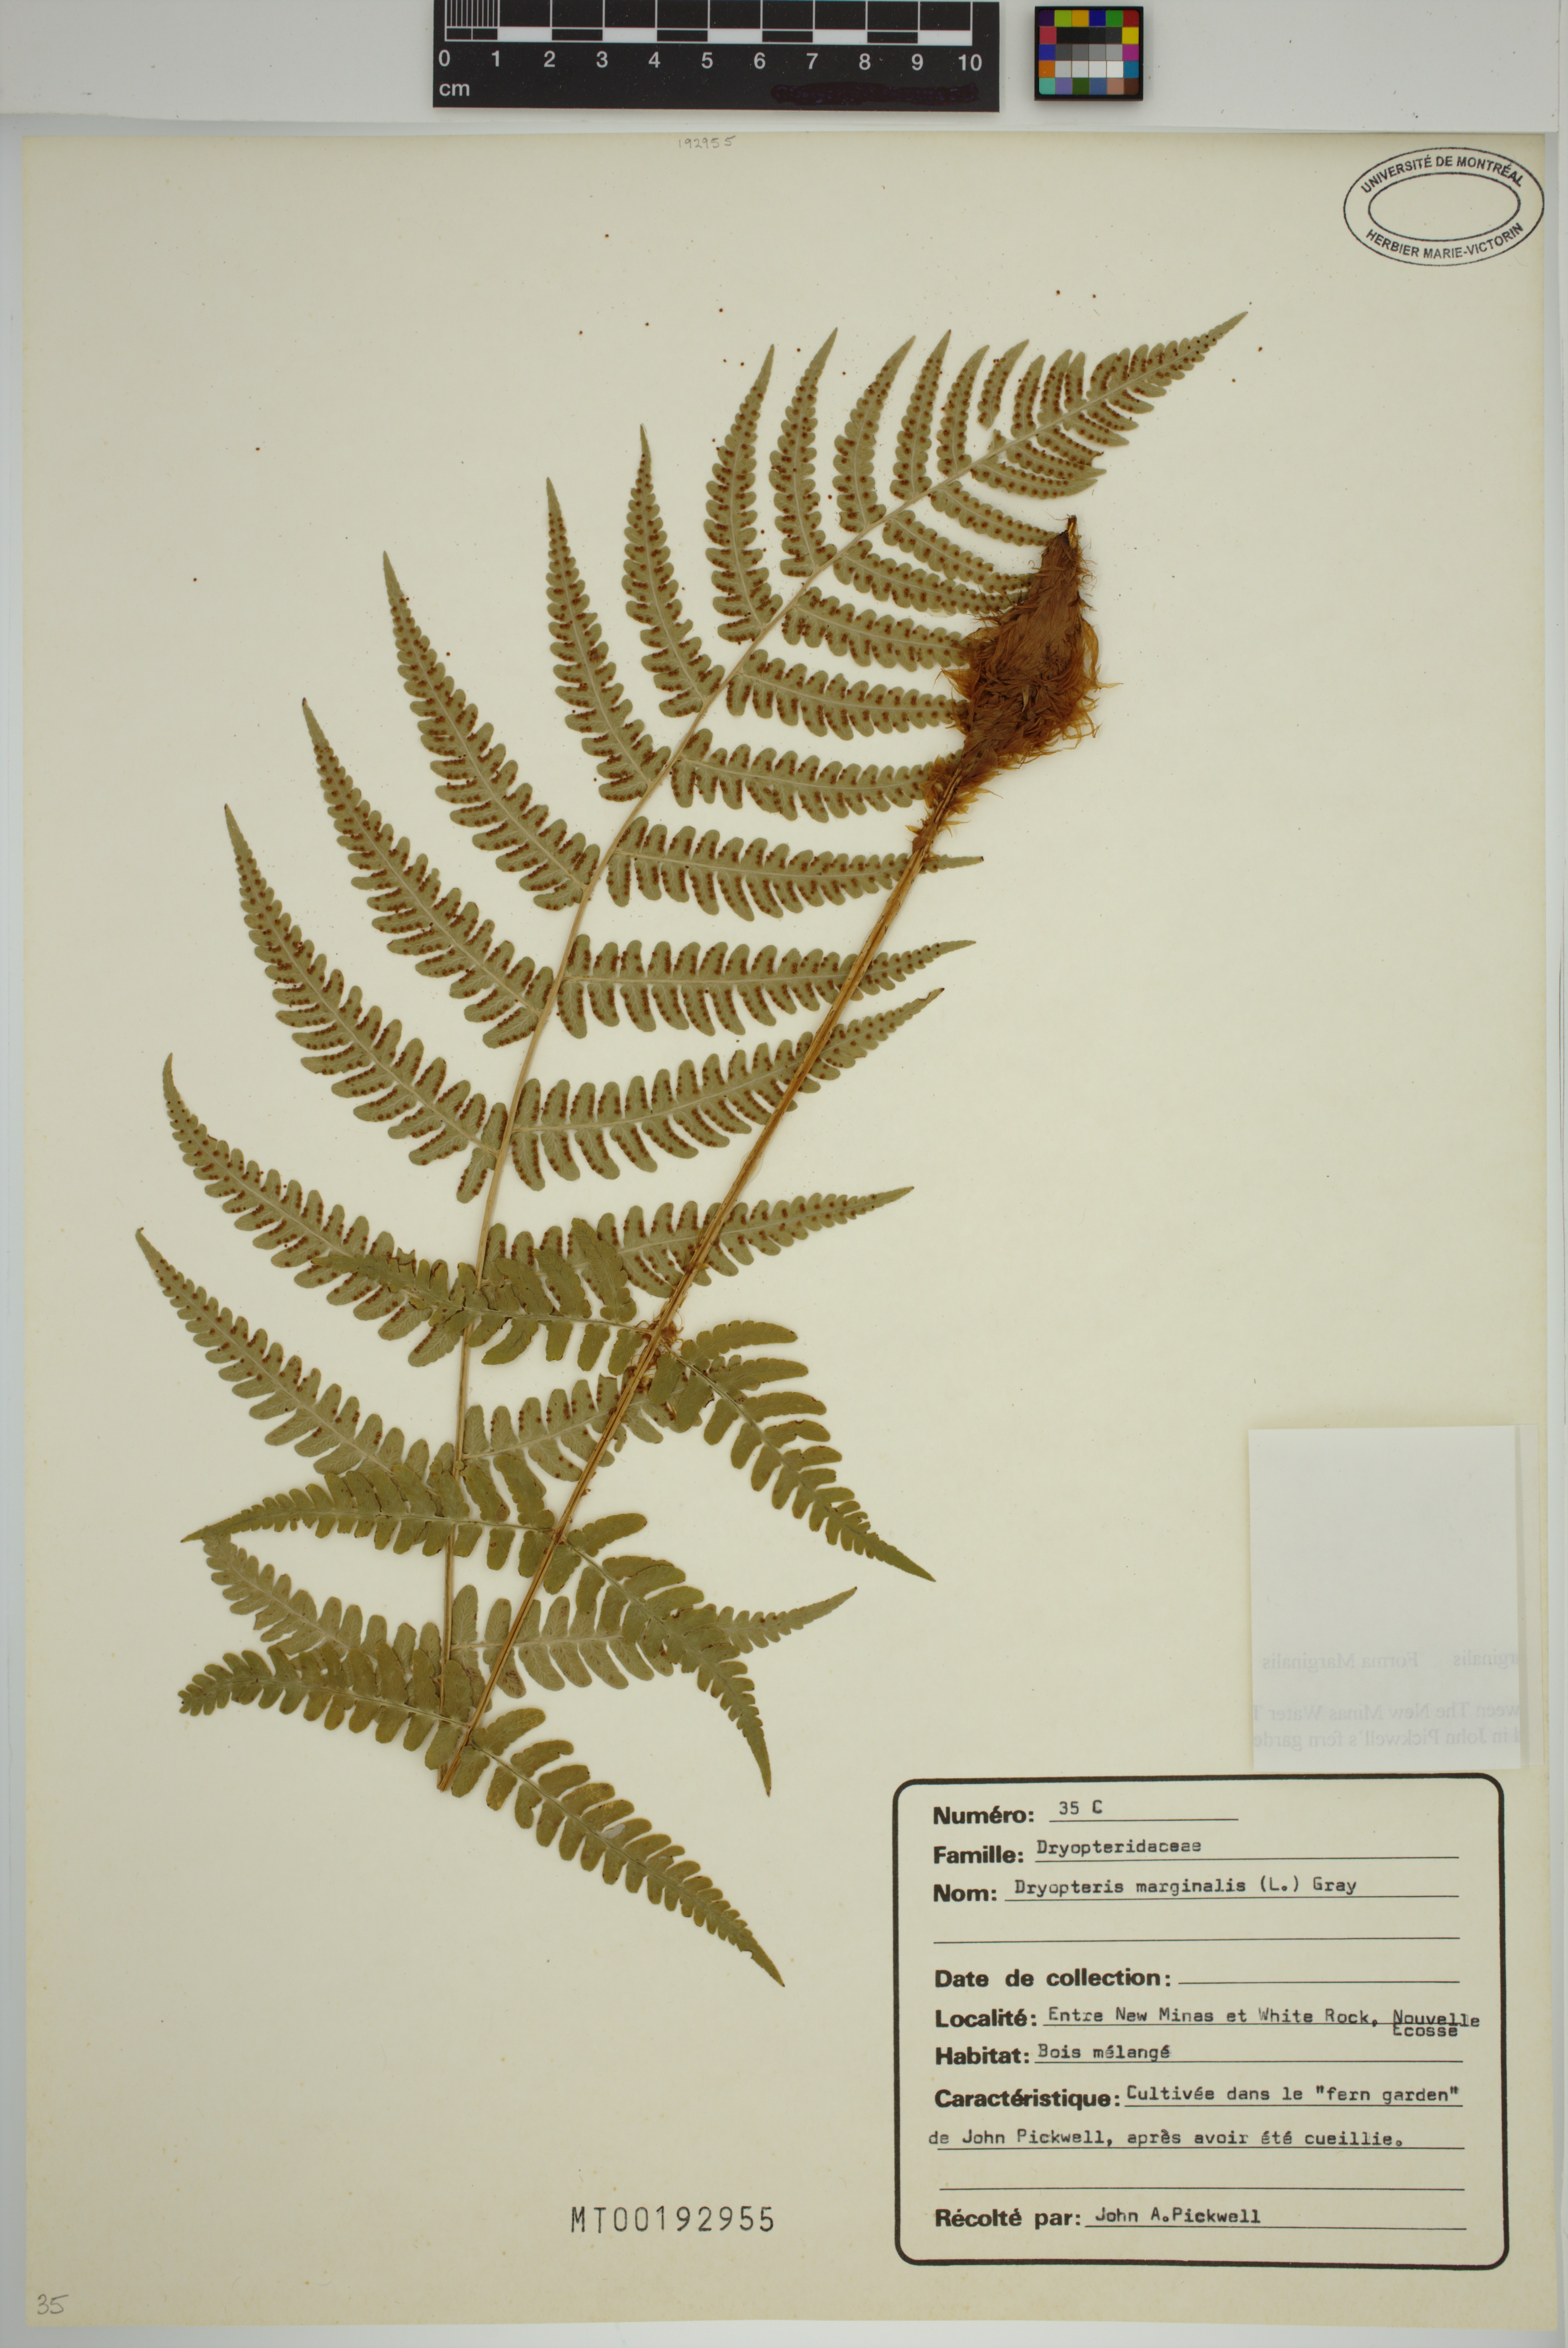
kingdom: Plantae
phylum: Tracheophyta
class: Polypodiopsida
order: Polypodiales
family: Dryopteridaceae
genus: Dryopteris
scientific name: Dryopteris marginalis
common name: Marginal wood fern
